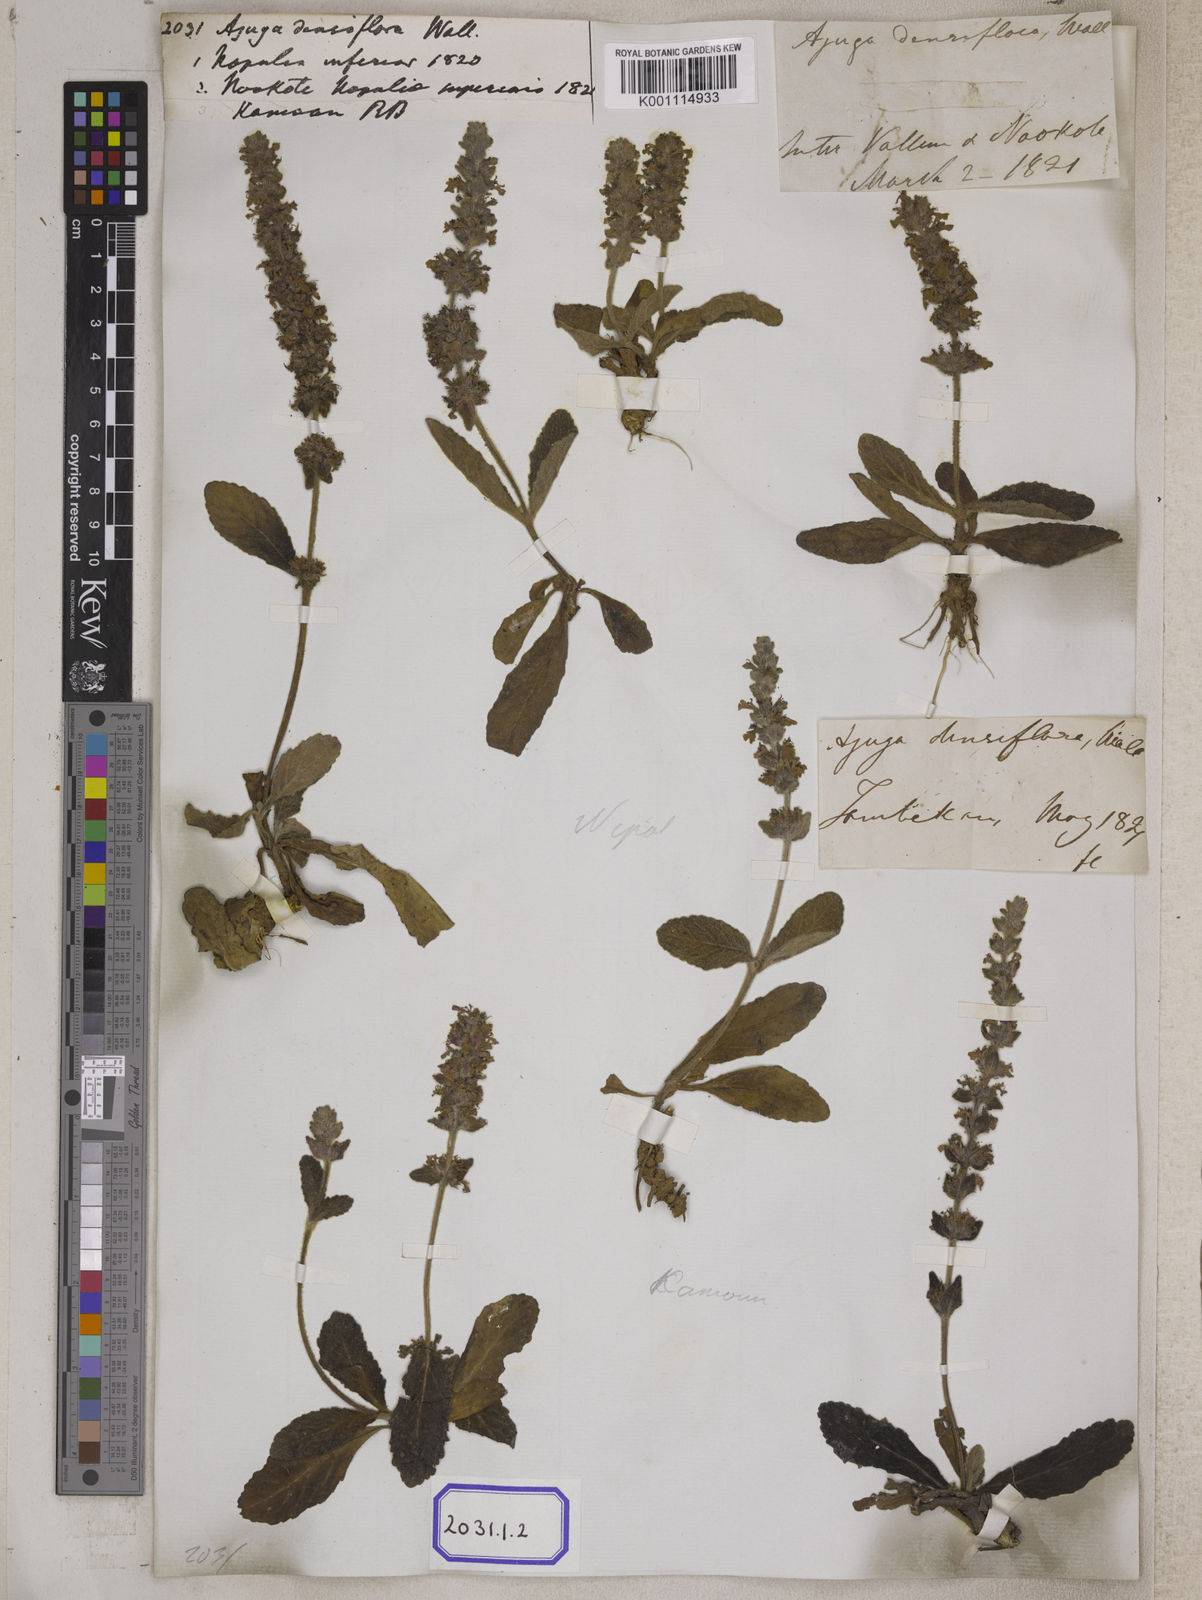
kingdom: Plantae
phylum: Tracheophyta
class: Magnoliopsida
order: Lamiales
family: Lamiaceae
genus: Ajuga
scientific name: Ajuga integrifolia
